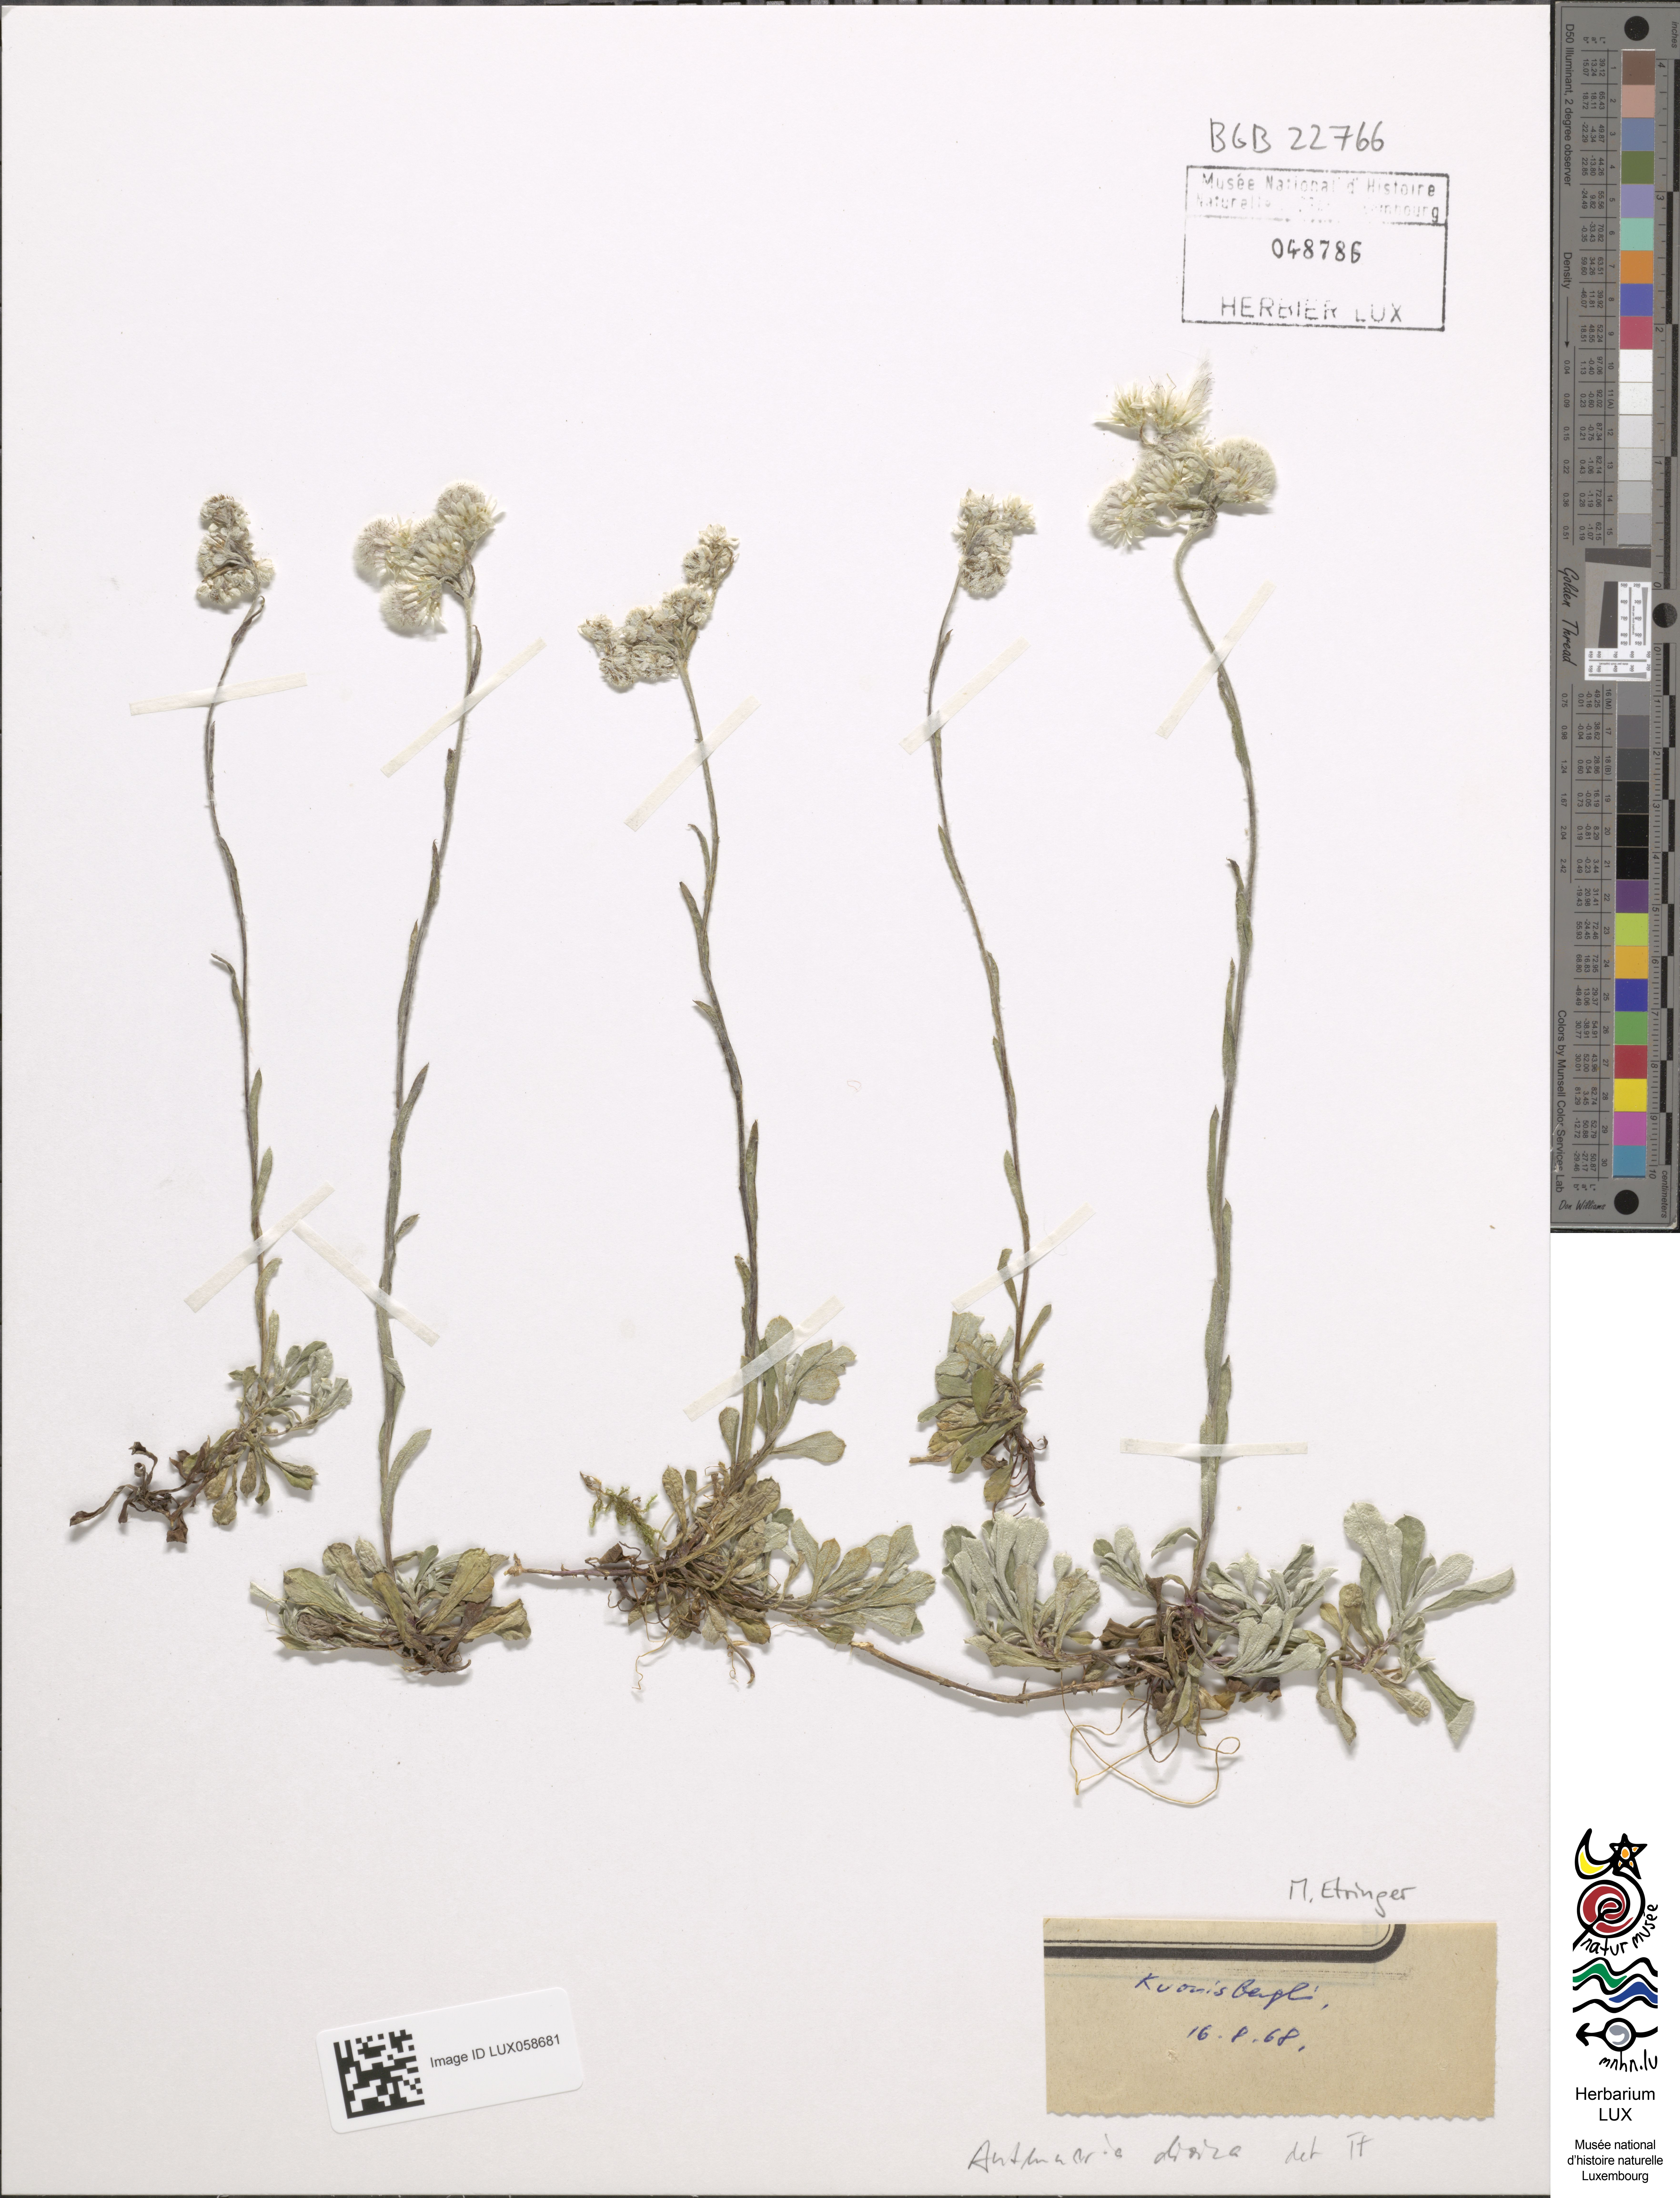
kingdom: Plantae
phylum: Tracheophyta
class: Magnoliopsida
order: Asterales
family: Asteraceae
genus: Antennaria
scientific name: Antennaria dioica
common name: Mountain everlasting
